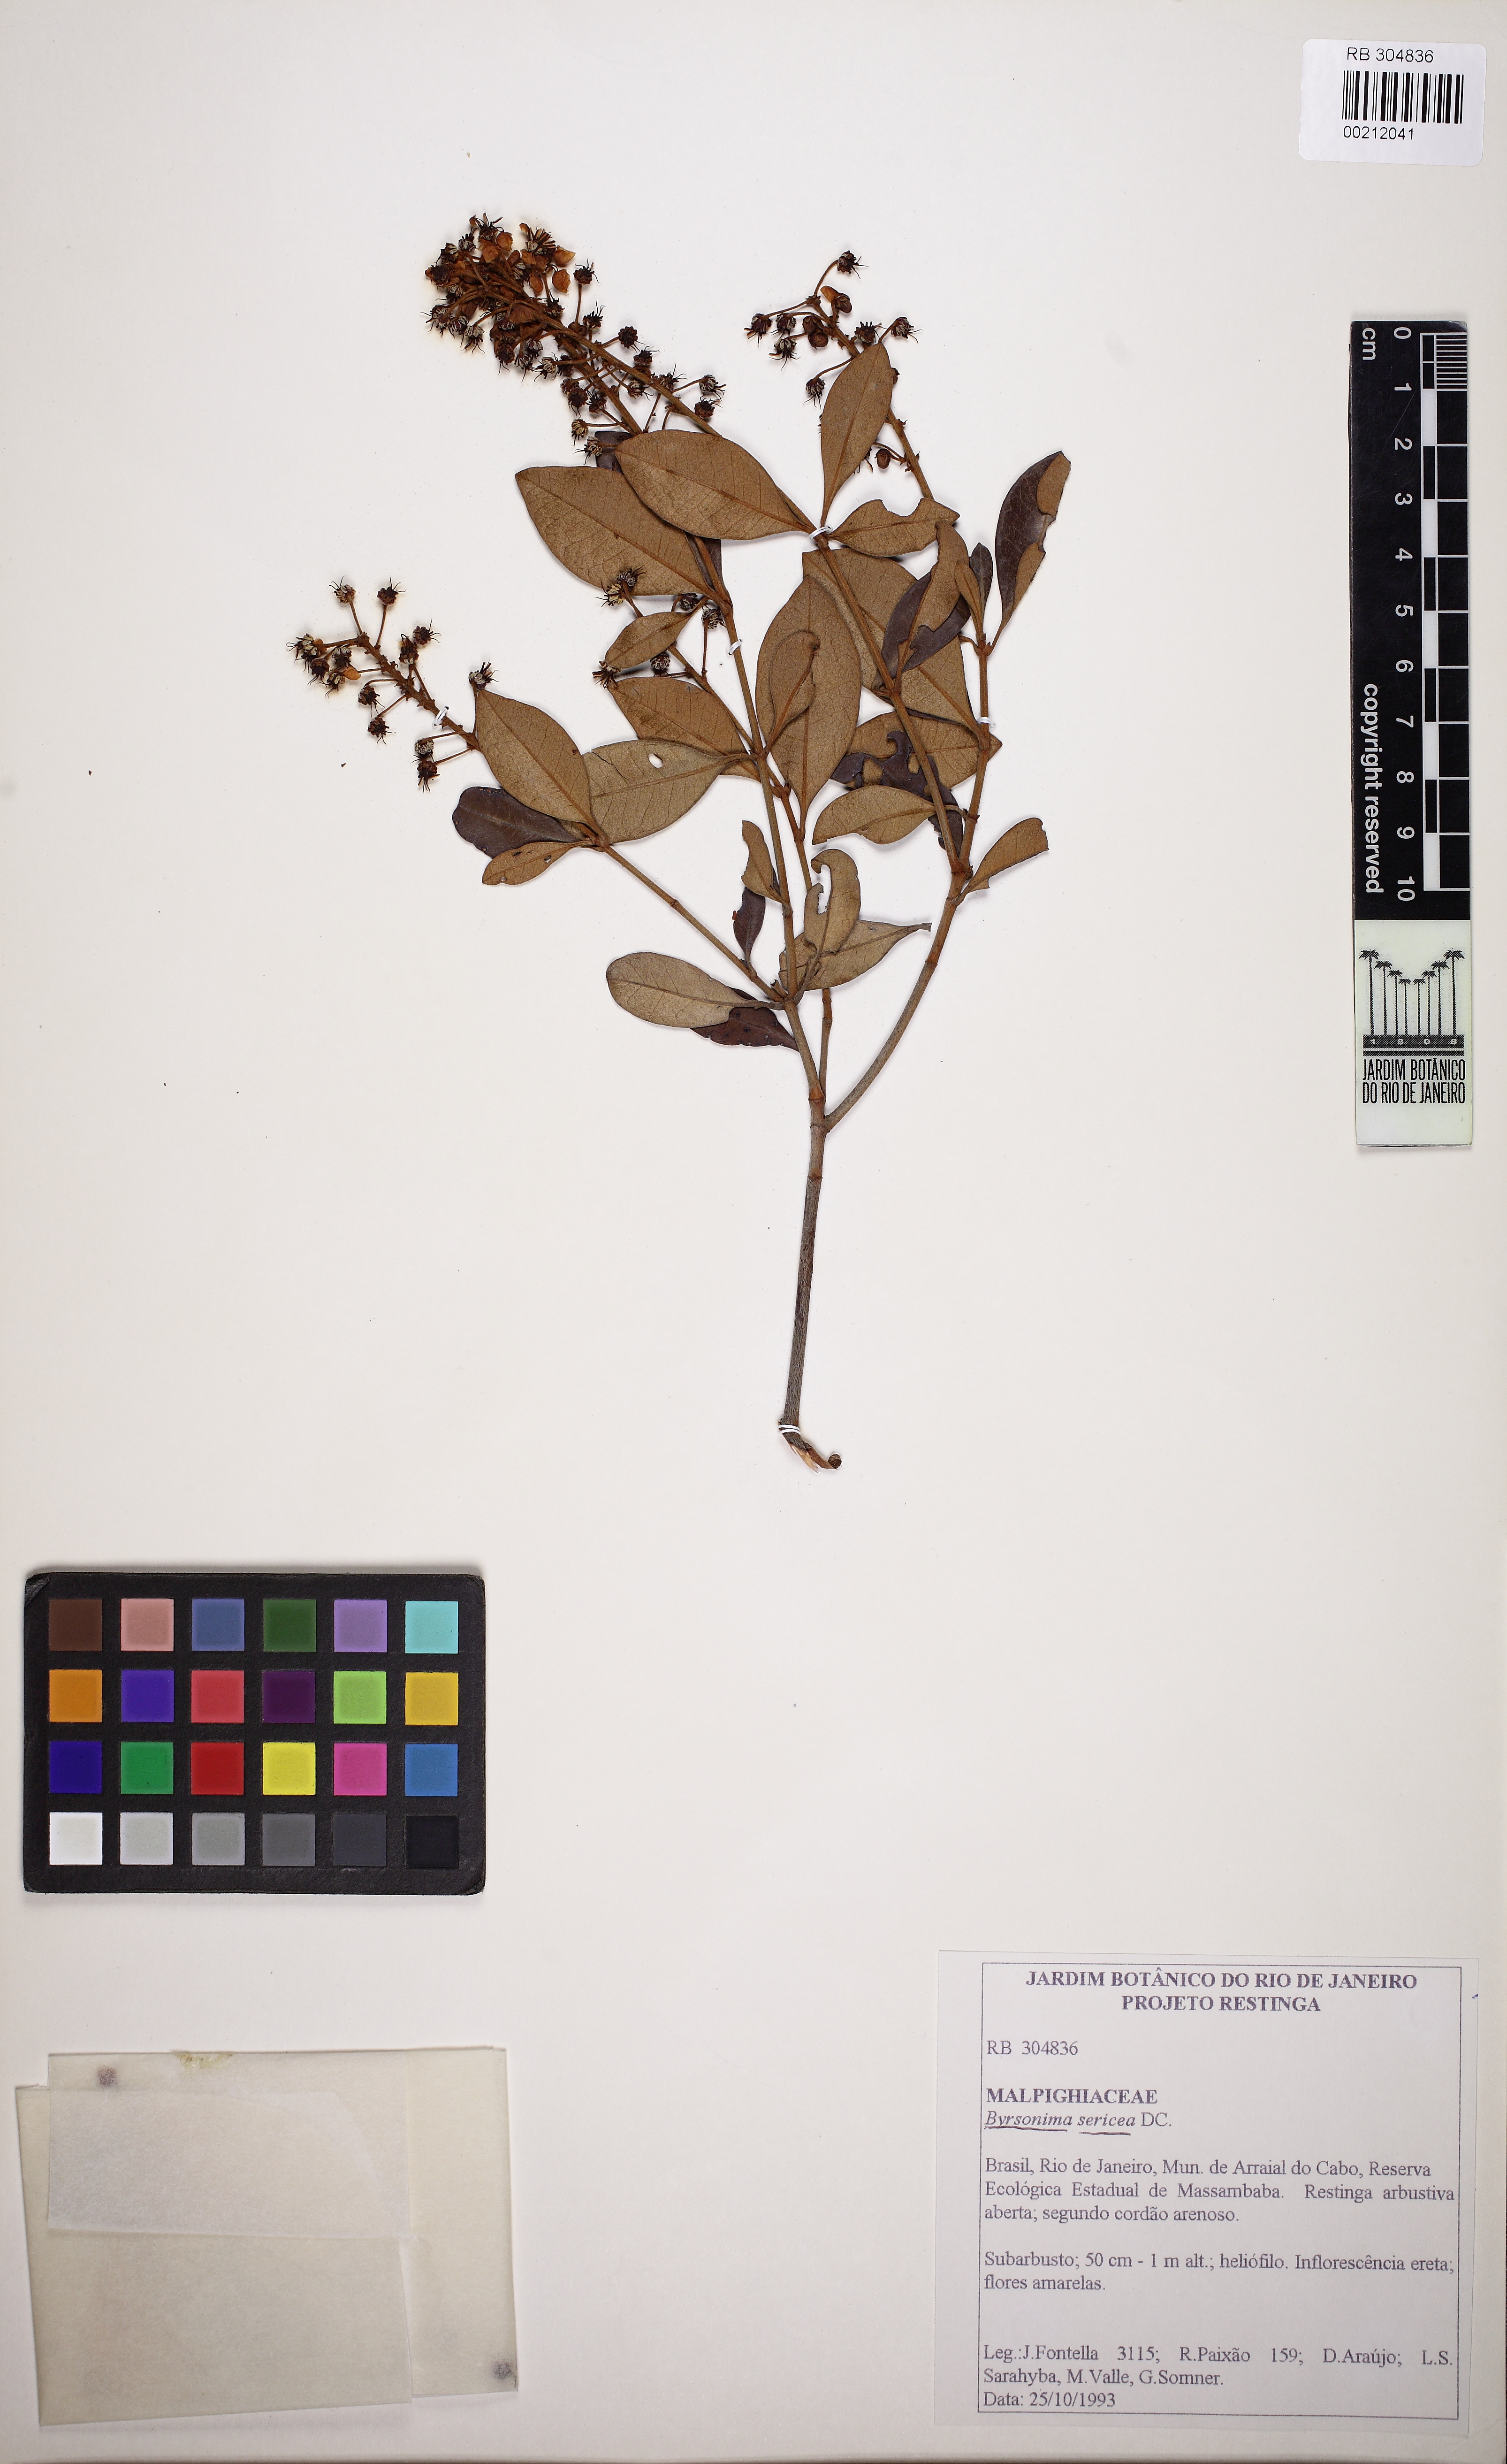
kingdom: Plantae
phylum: Tracheophyta
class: Magnoliopsida
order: Malpighiales
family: Malpighiaceae
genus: Byrsonima
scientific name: Byrsonima sericea
